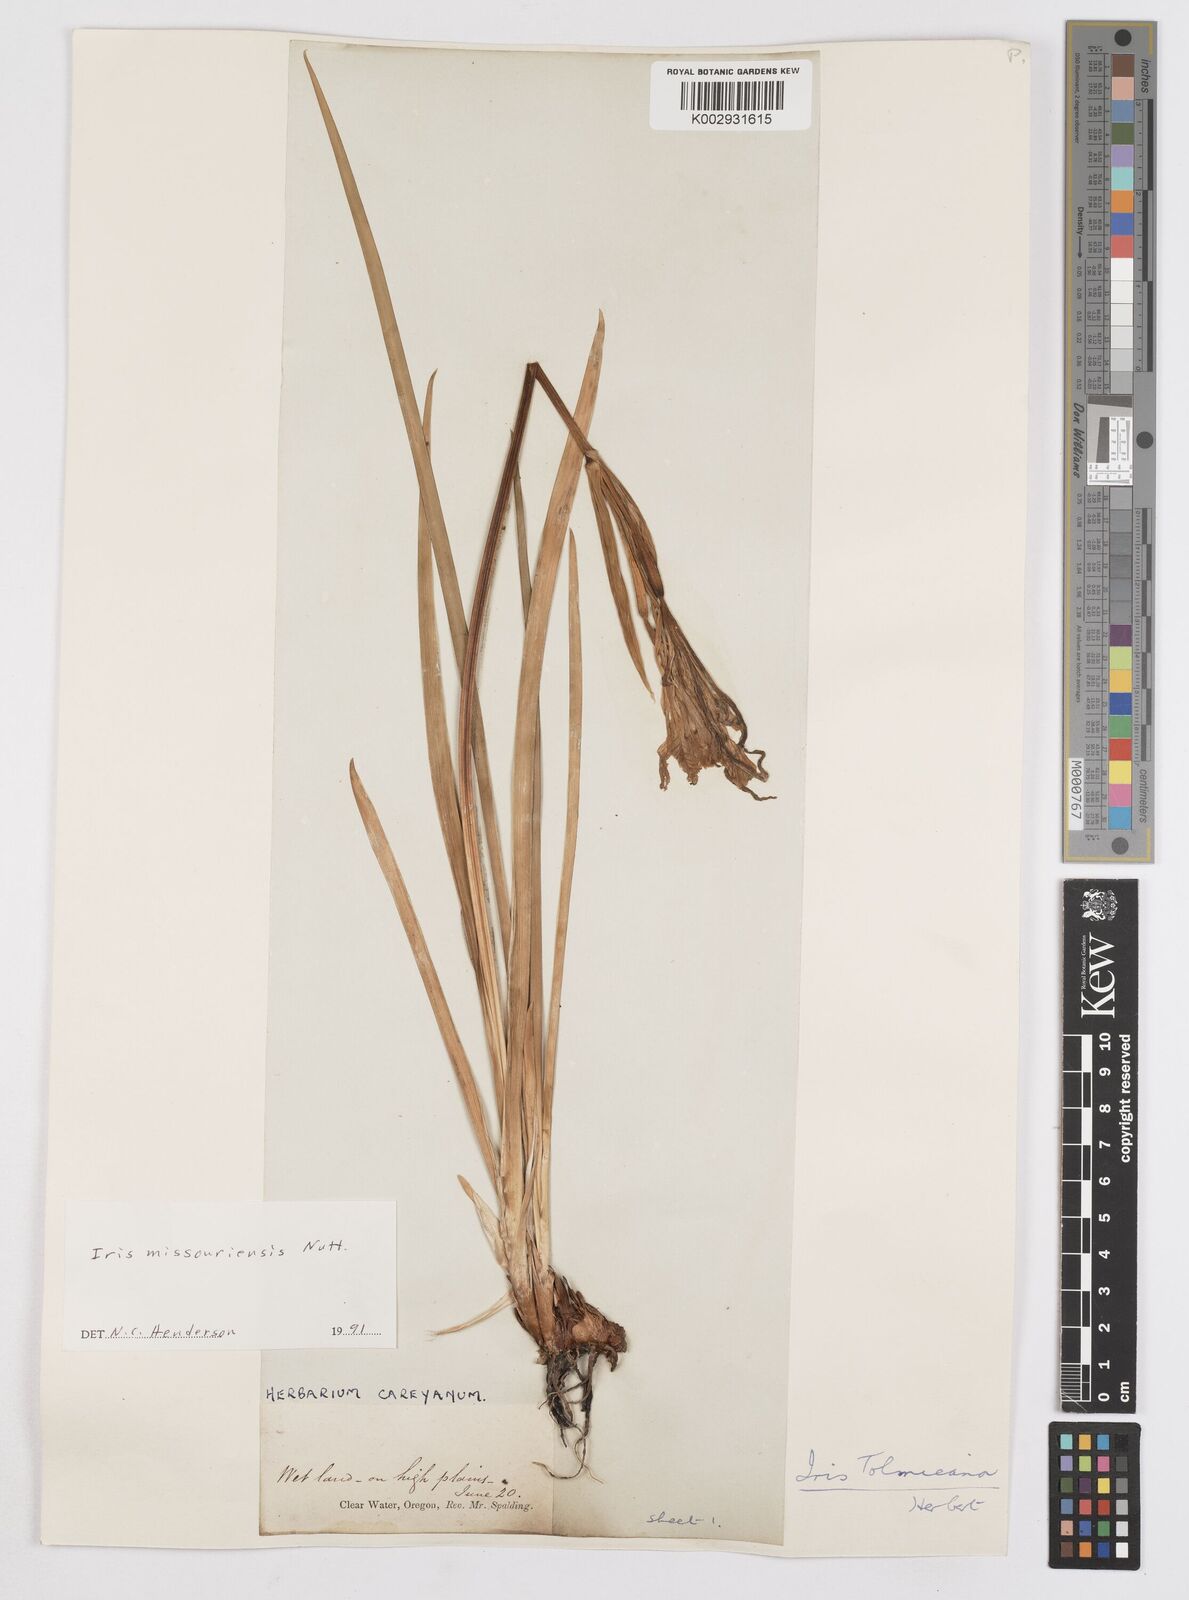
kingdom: Plantae
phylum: Tracheophyta
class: Liliopsida
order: Asparagales
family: Iridaceae
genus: Iris
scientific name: Iris missouriensis
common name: Rocky mountain iris
